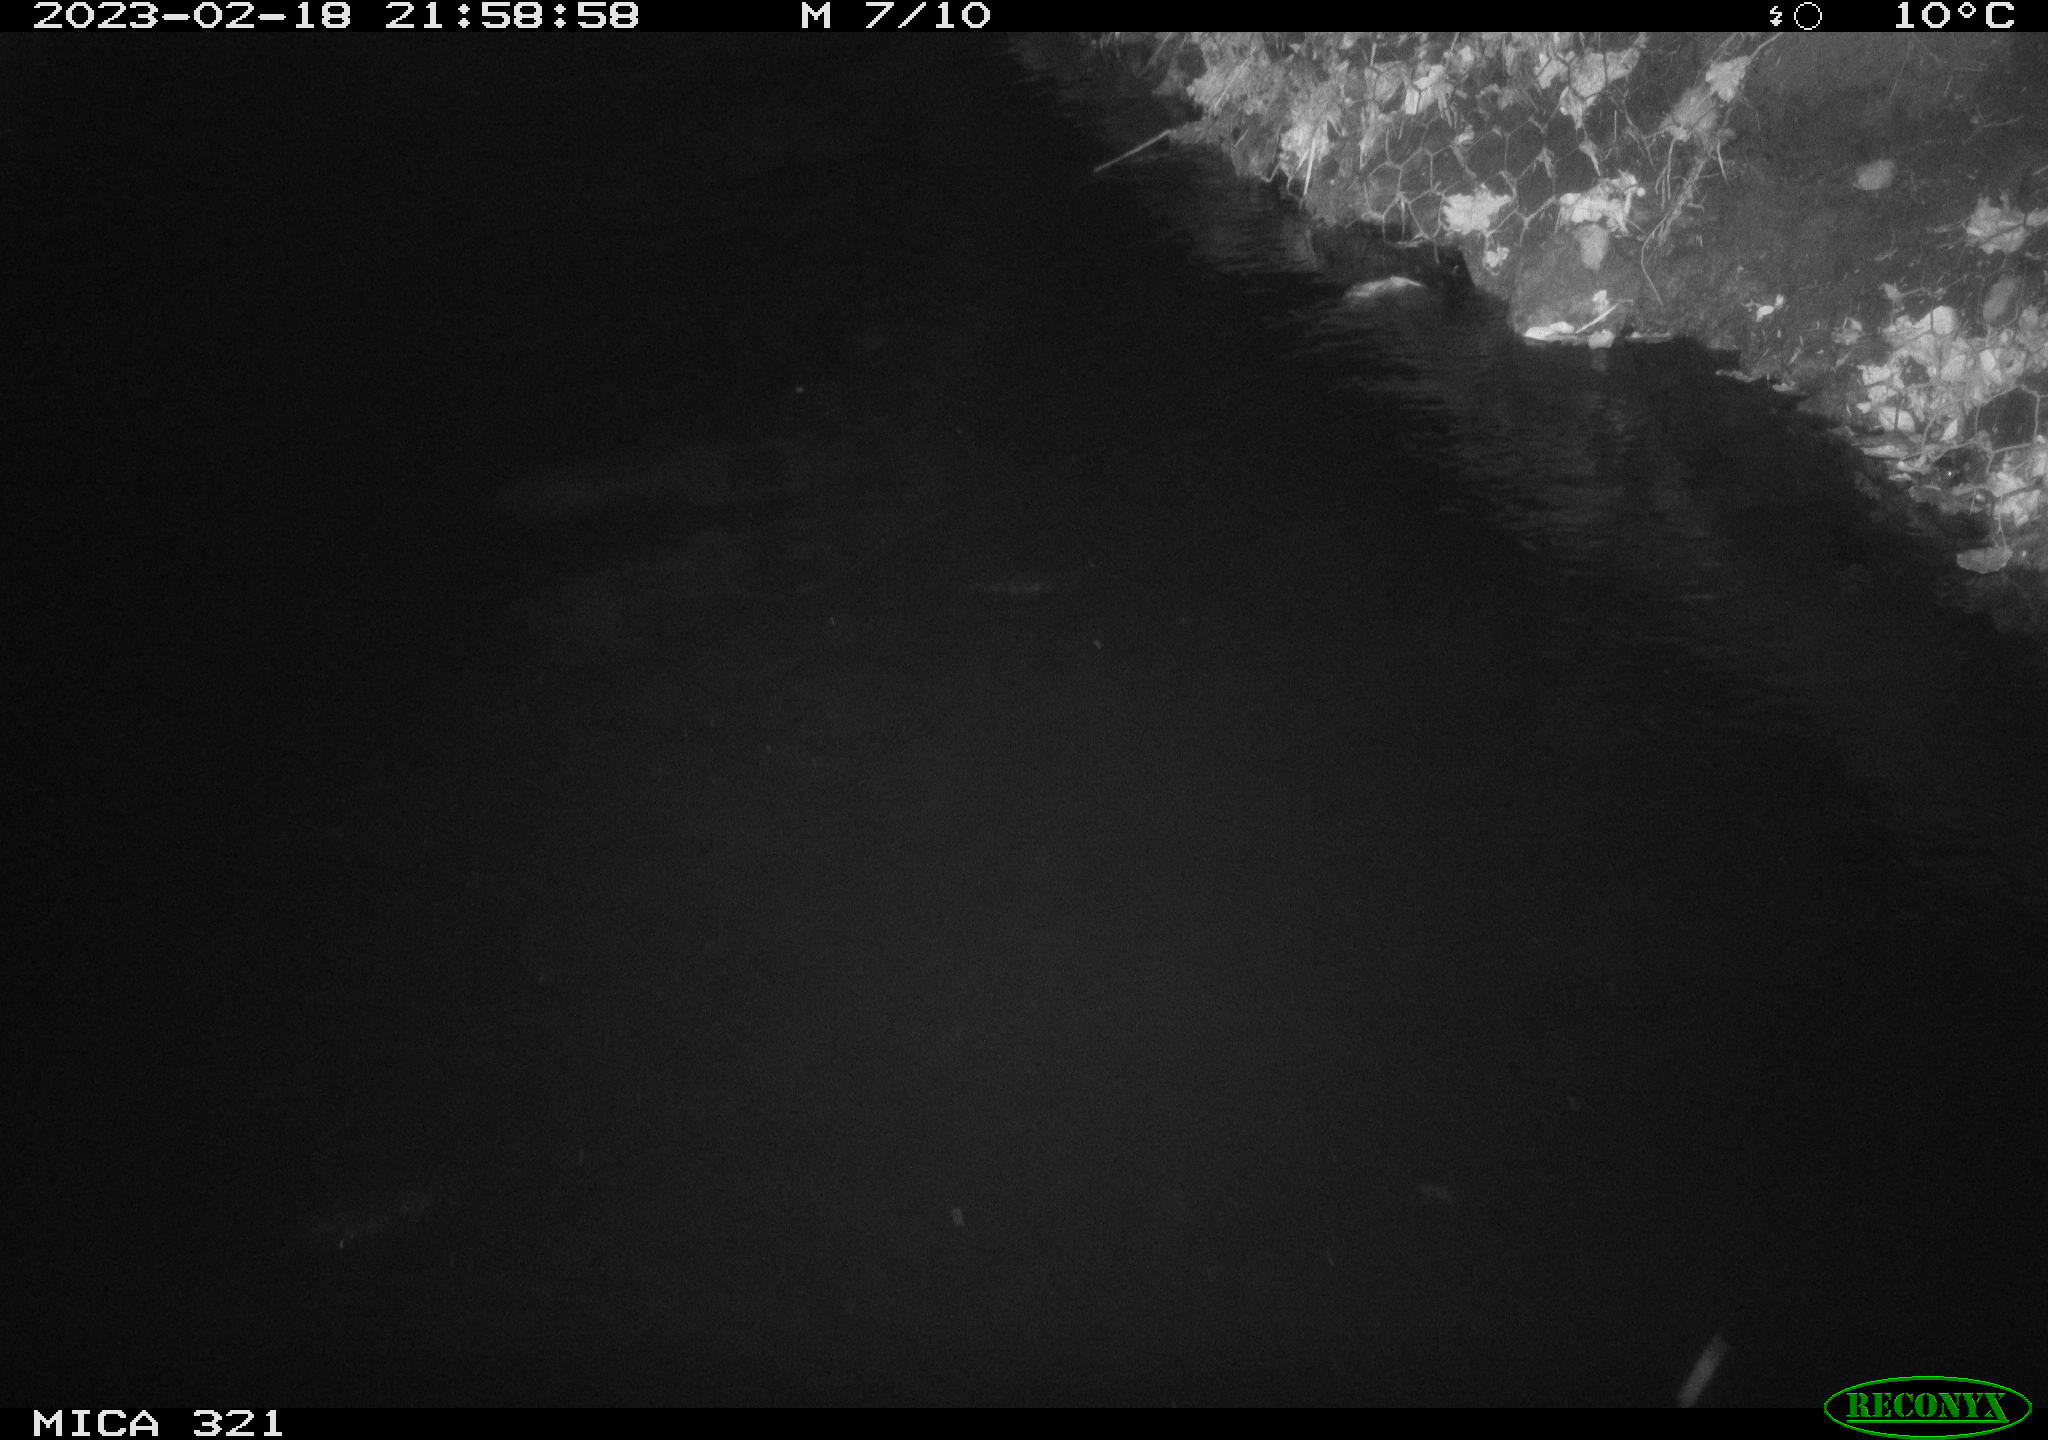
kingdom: Animalia
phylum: Chordata
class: Aves
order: Anseriformes
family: Anatidae
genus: Anas
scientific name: Anas
